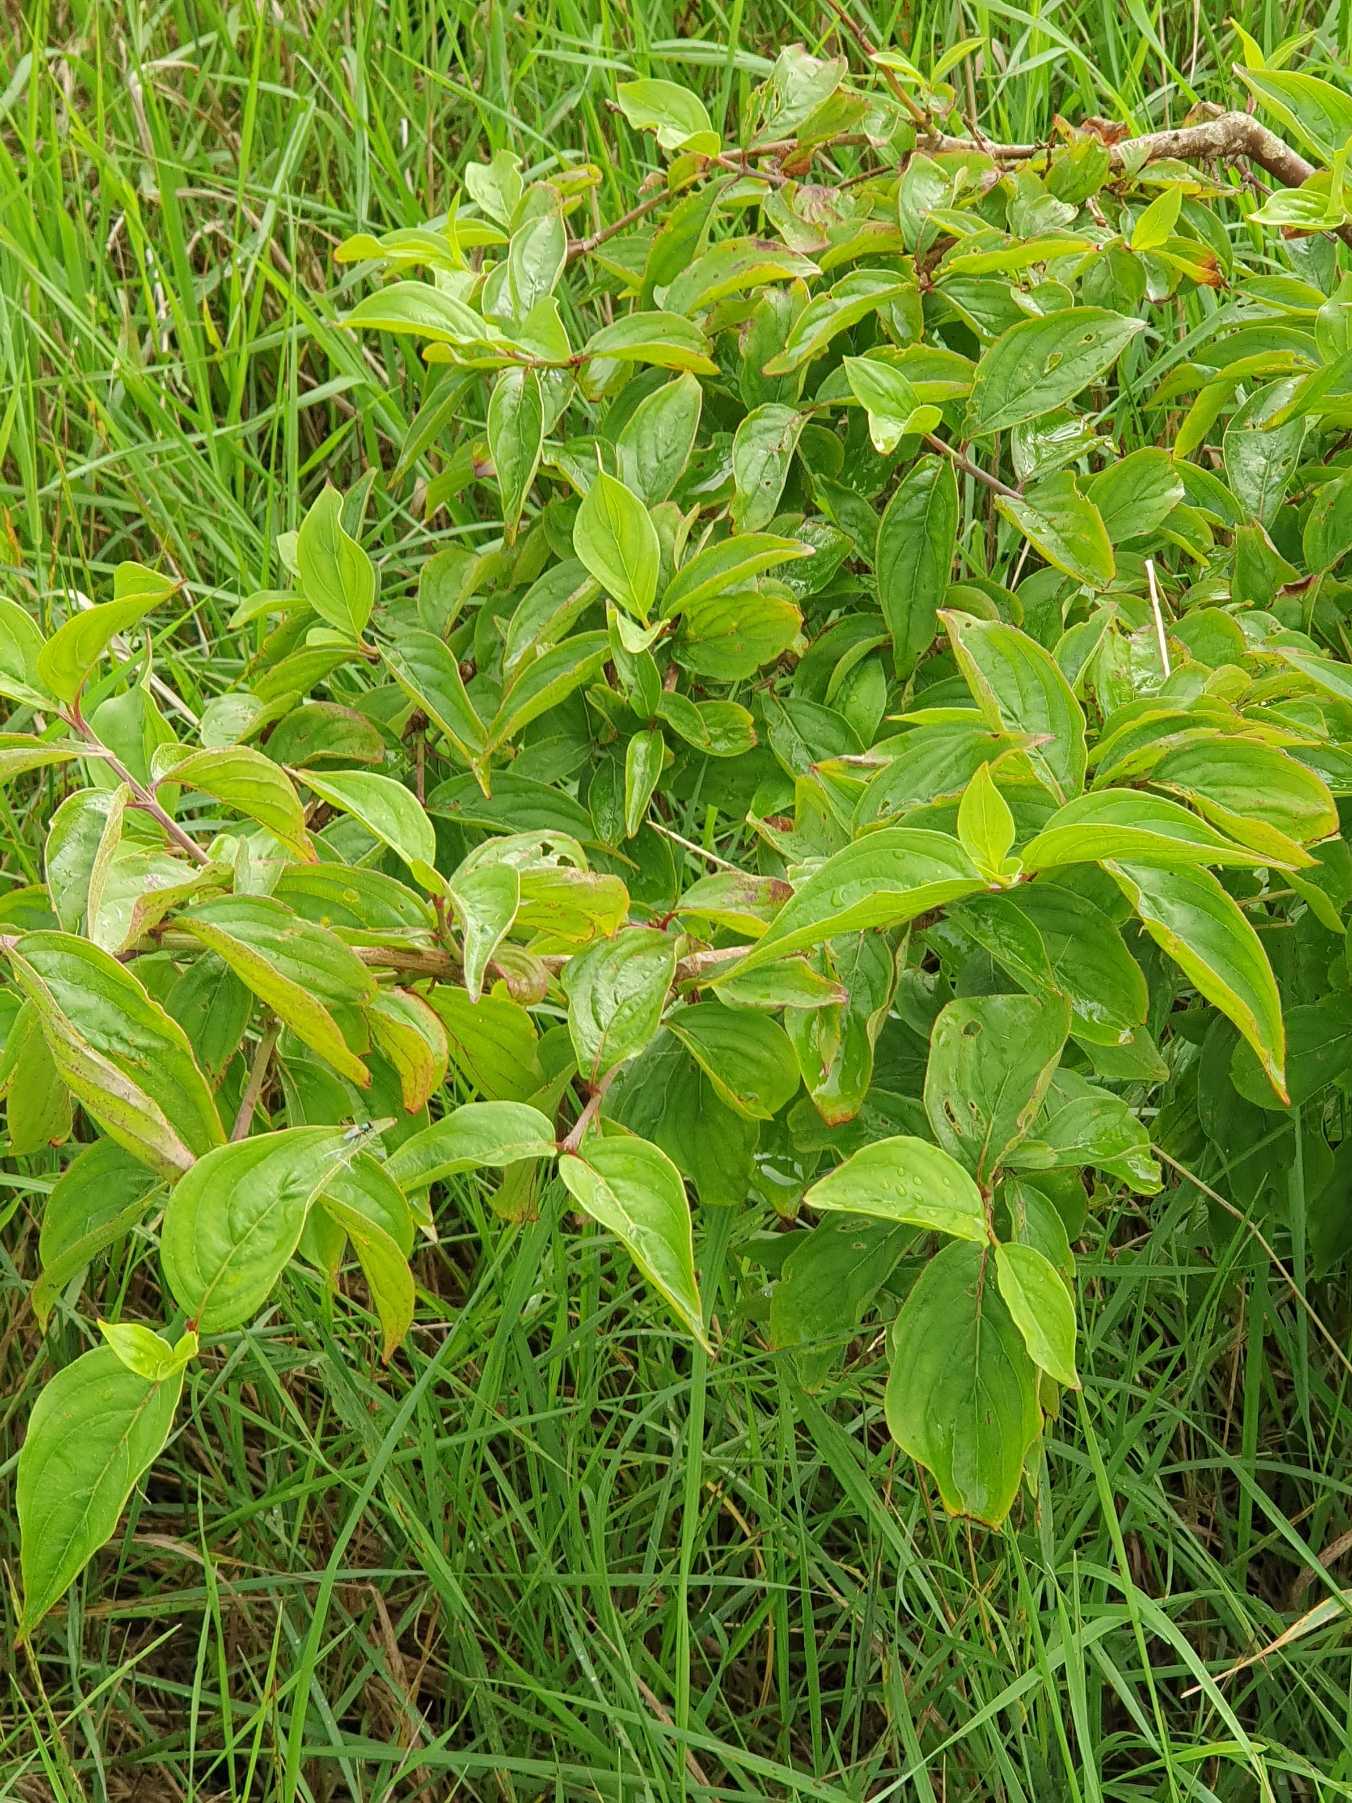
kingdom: Plantae
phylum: Tracheophyta
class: Magnoliopsida
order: Cornales
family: Cornaceae
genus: Cornus
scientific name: Cornus sanguinea
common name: Rød kornel
